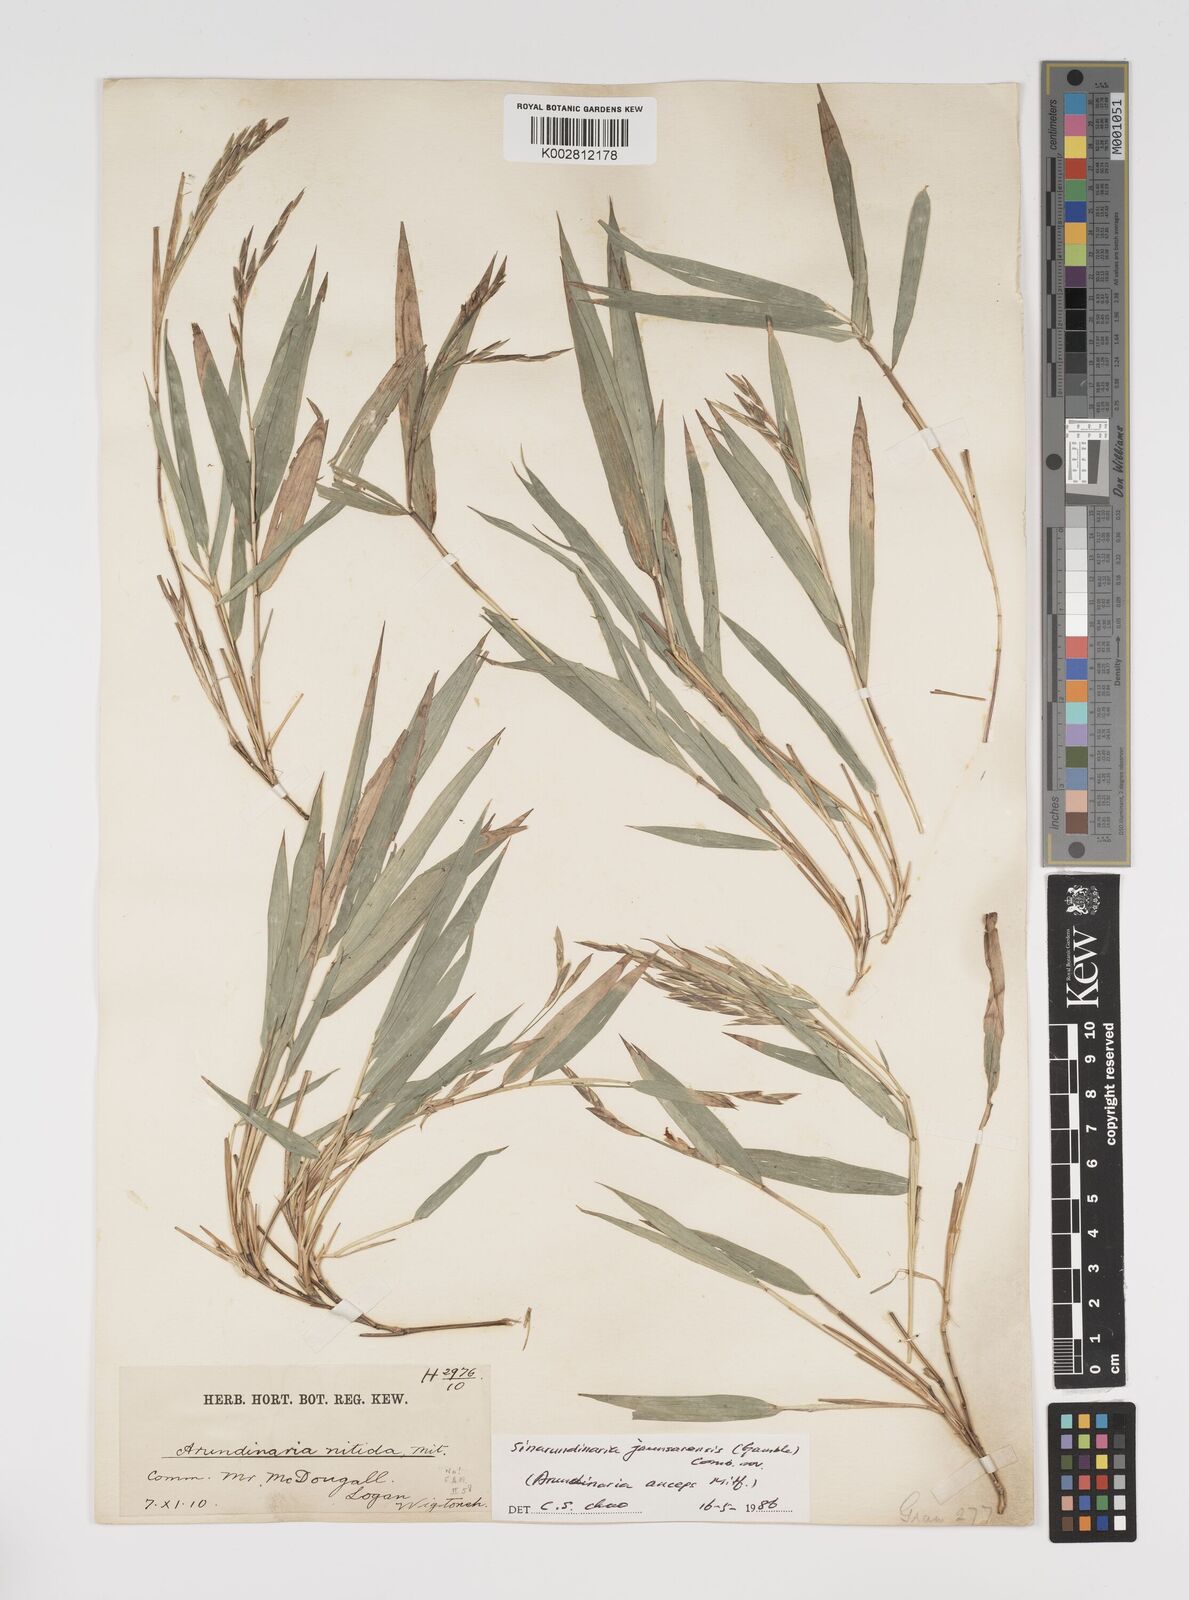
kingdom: Plantae
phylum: Tracheophyta
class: Liliopsida
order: Poales
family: Poaceae
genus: Yushania
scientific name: Yushania anceps
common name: Indian fountain-bamboo
